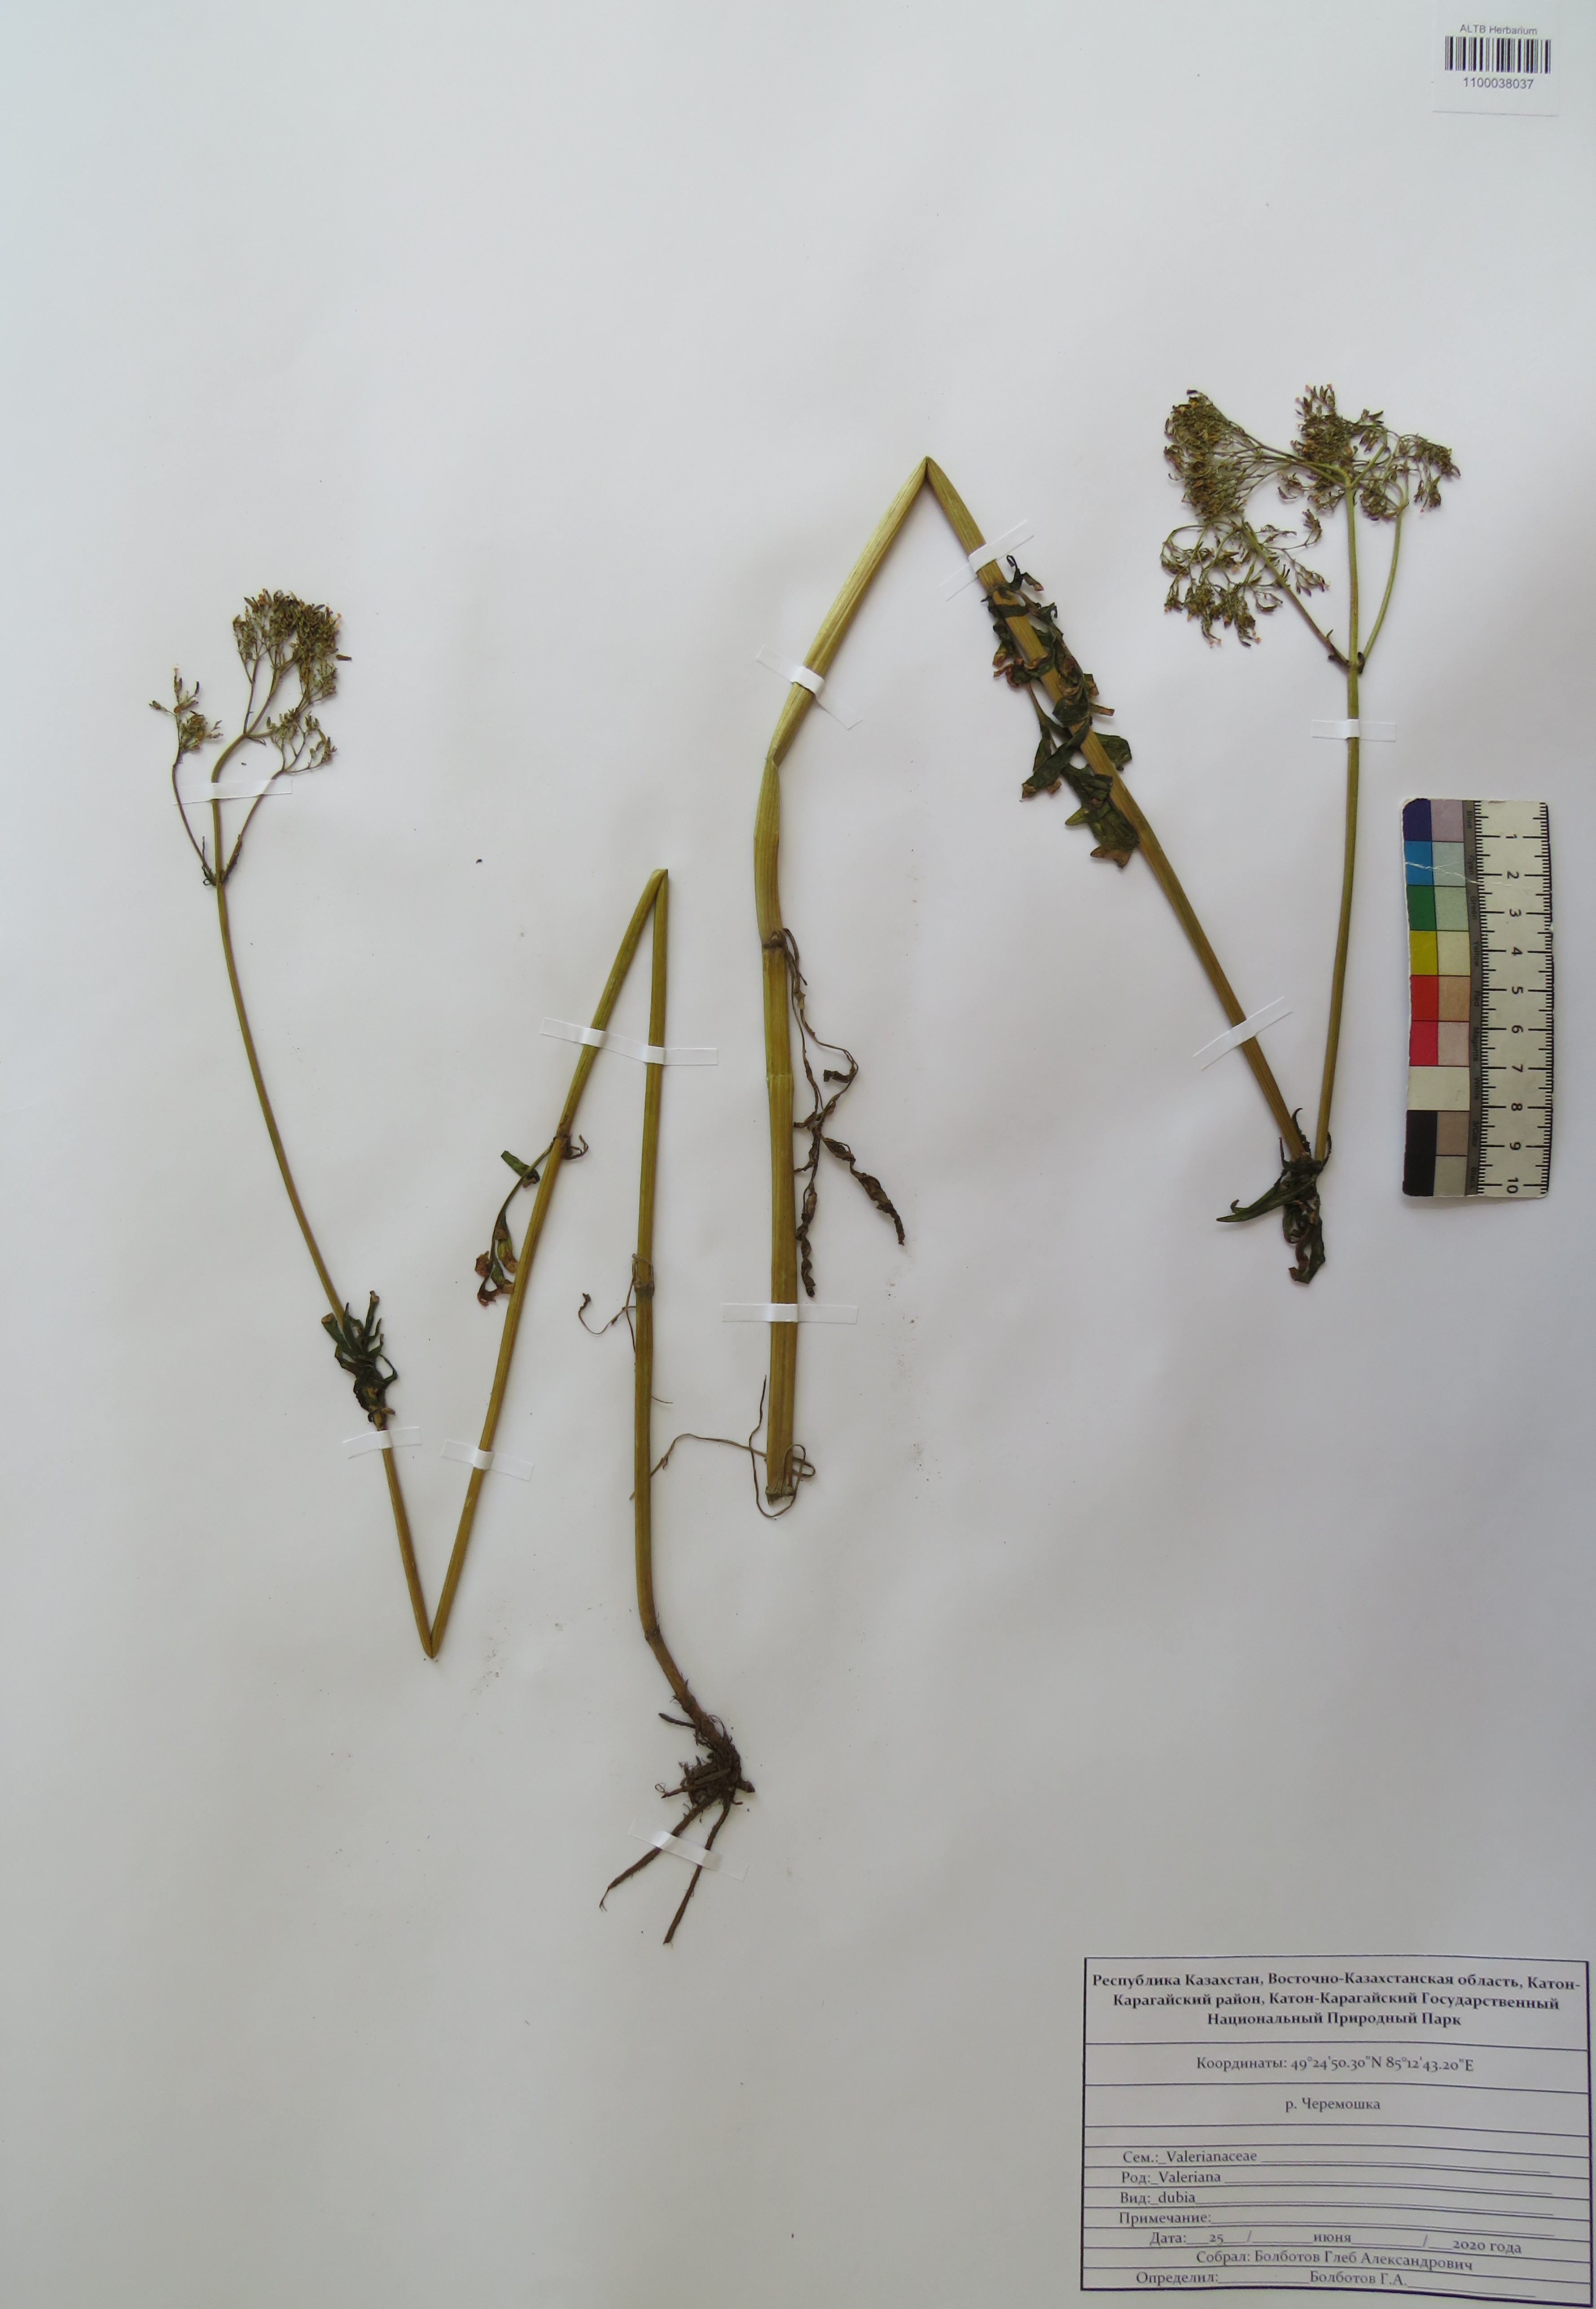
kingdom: Plantae
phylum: Tracheophyta
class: Magnoliopsida
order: Dipsacales
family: Caprifoliaceae
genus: Valeriana
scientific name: Valeriana dubia
